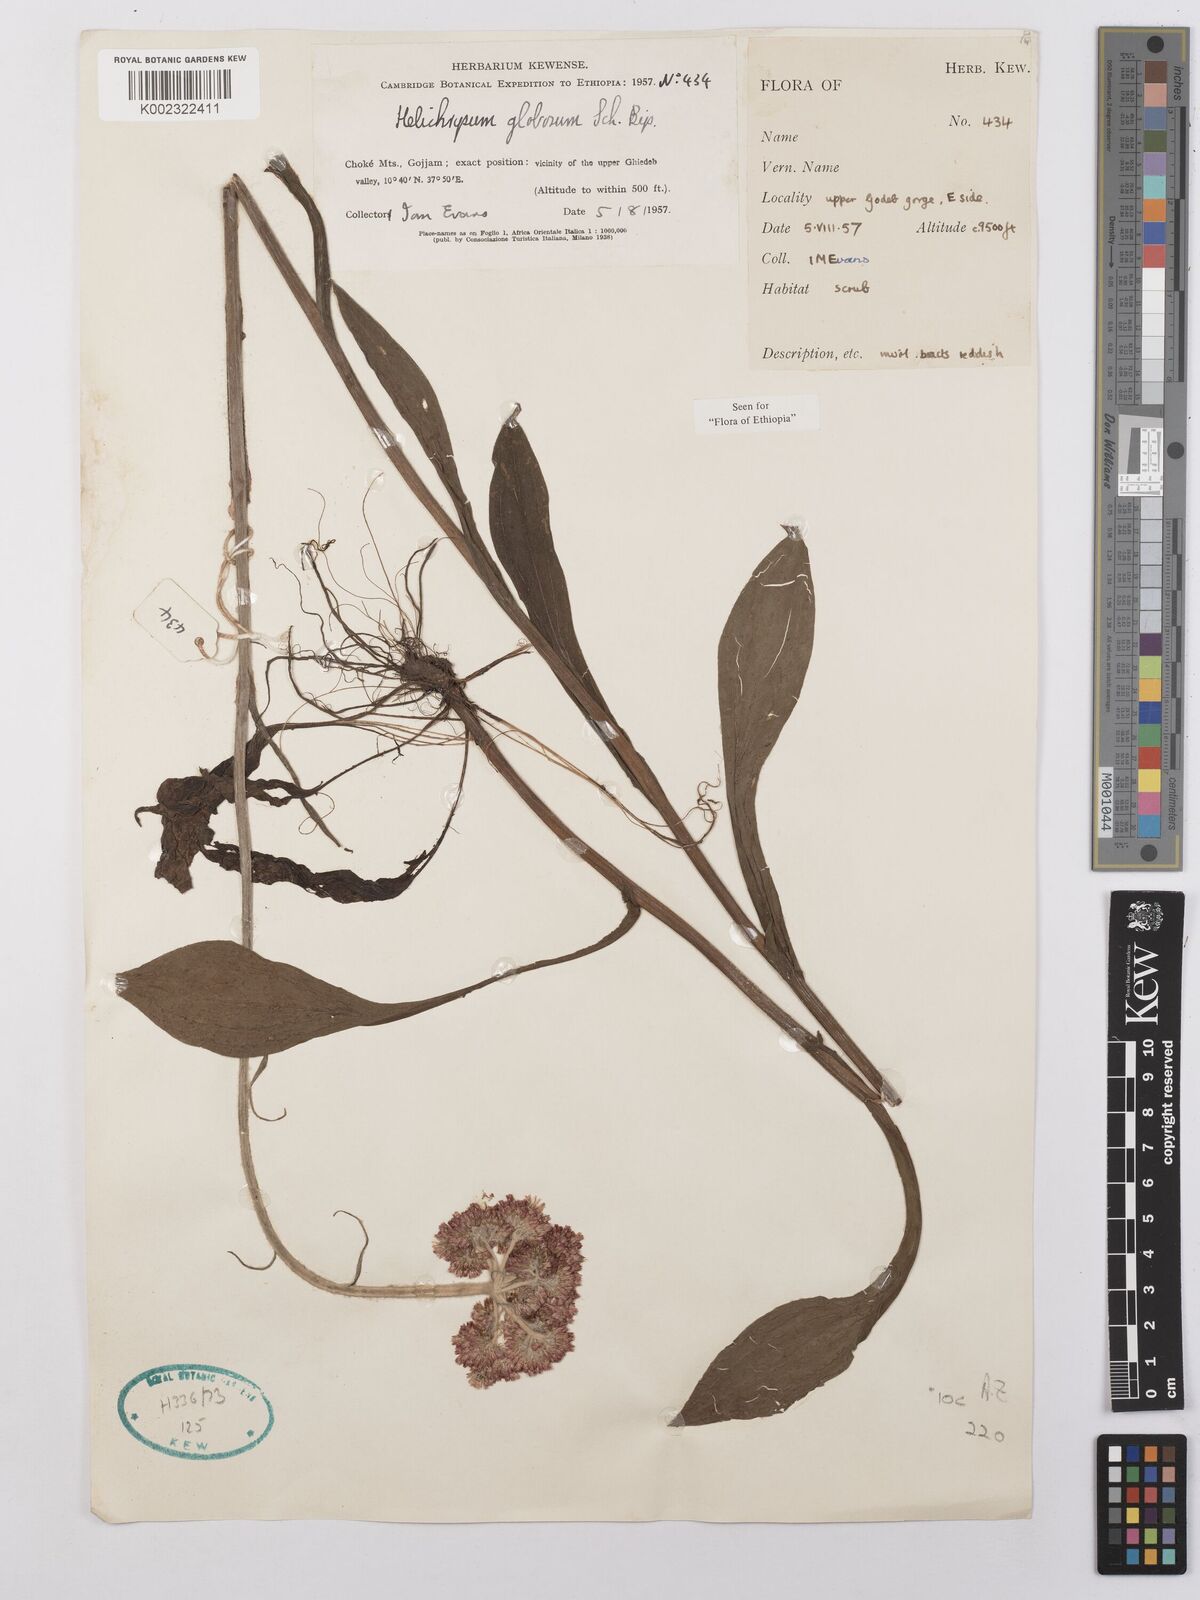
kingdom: Plantae
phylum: Tracheophyta
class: Magnoliopsida
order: Asterales
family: Asteraceae
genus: Helichrysum
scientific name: Helichrysum globosum
